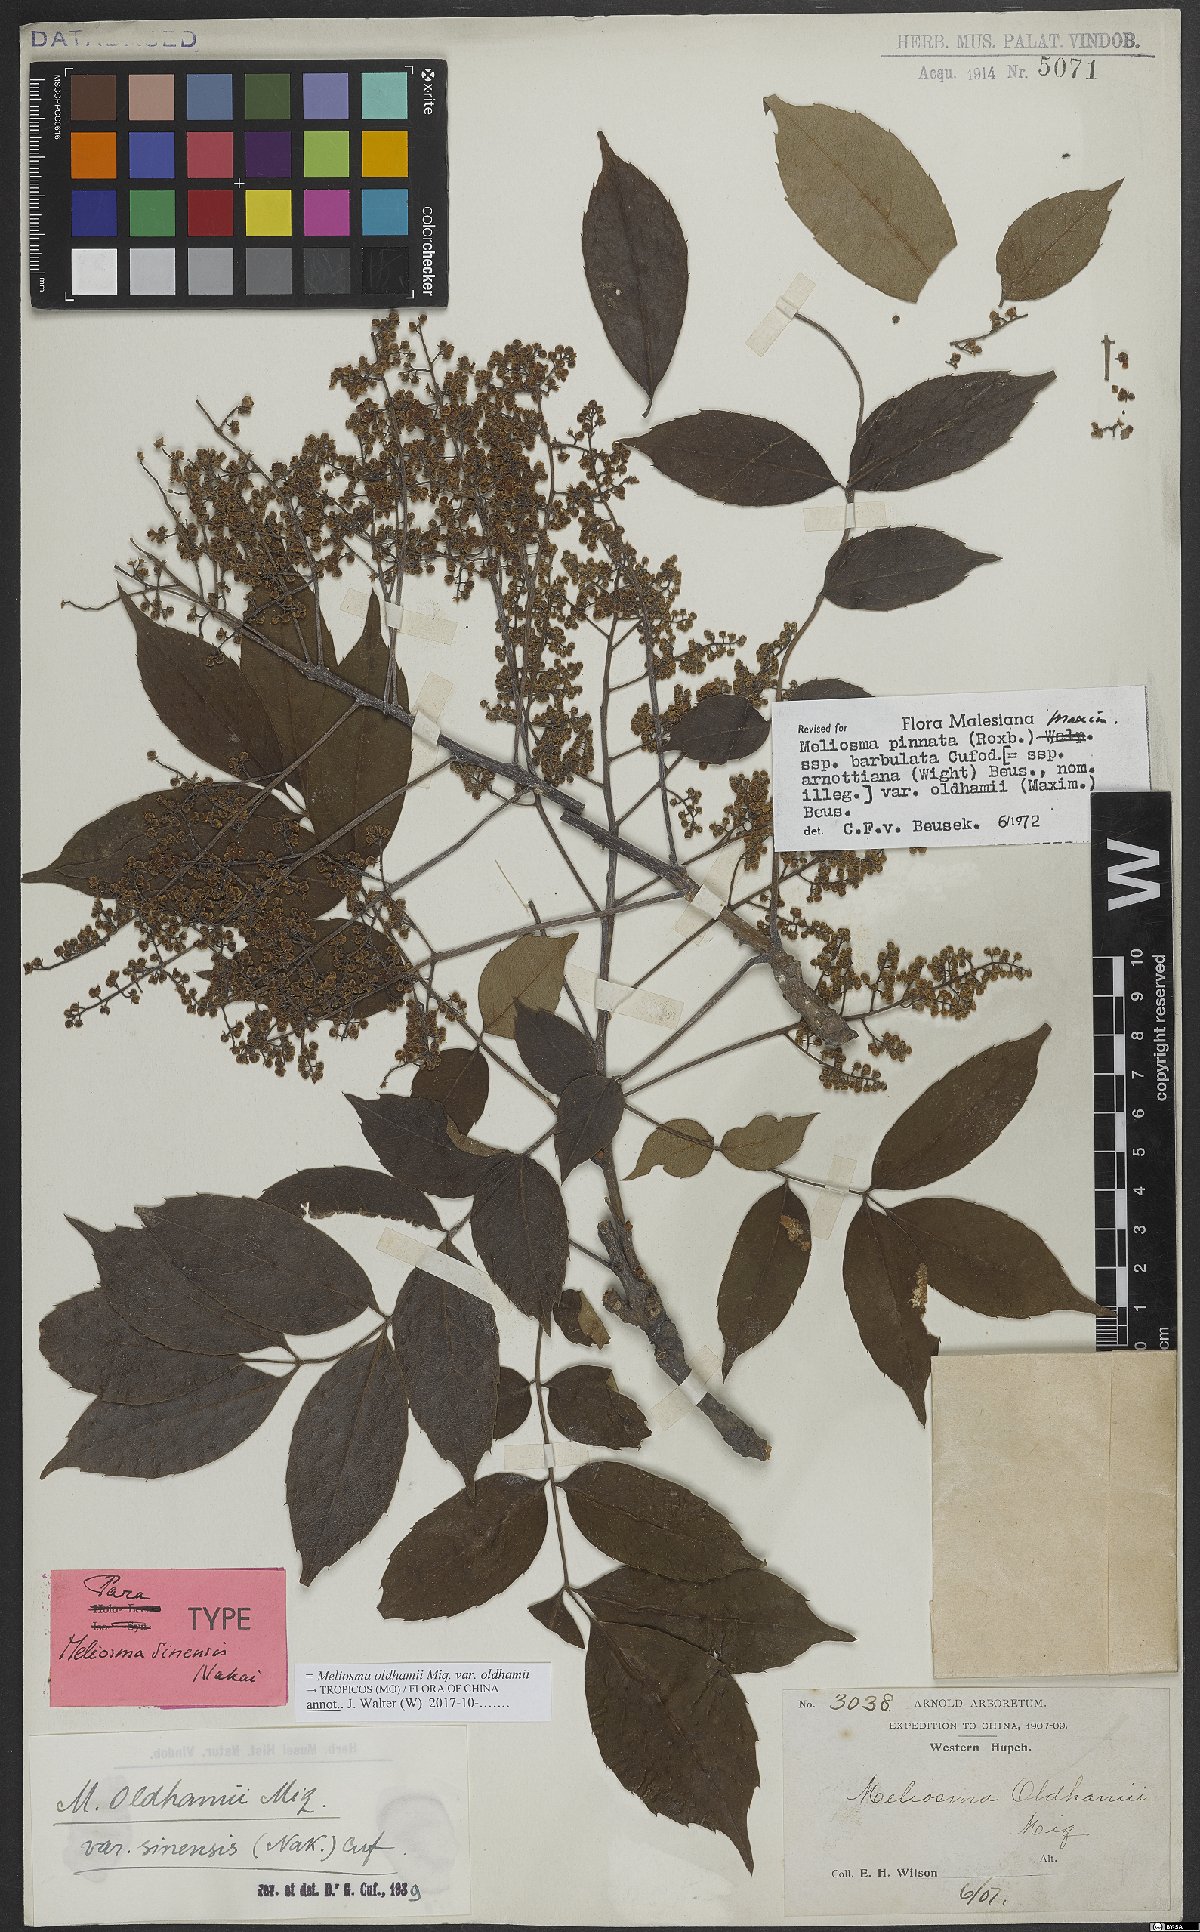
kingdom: Plantae
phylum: Tracheophyta
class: Magnoliopsida
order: Proteales
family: Sabiaceae
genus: Meliosma
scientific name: Meliosma oldhamii
